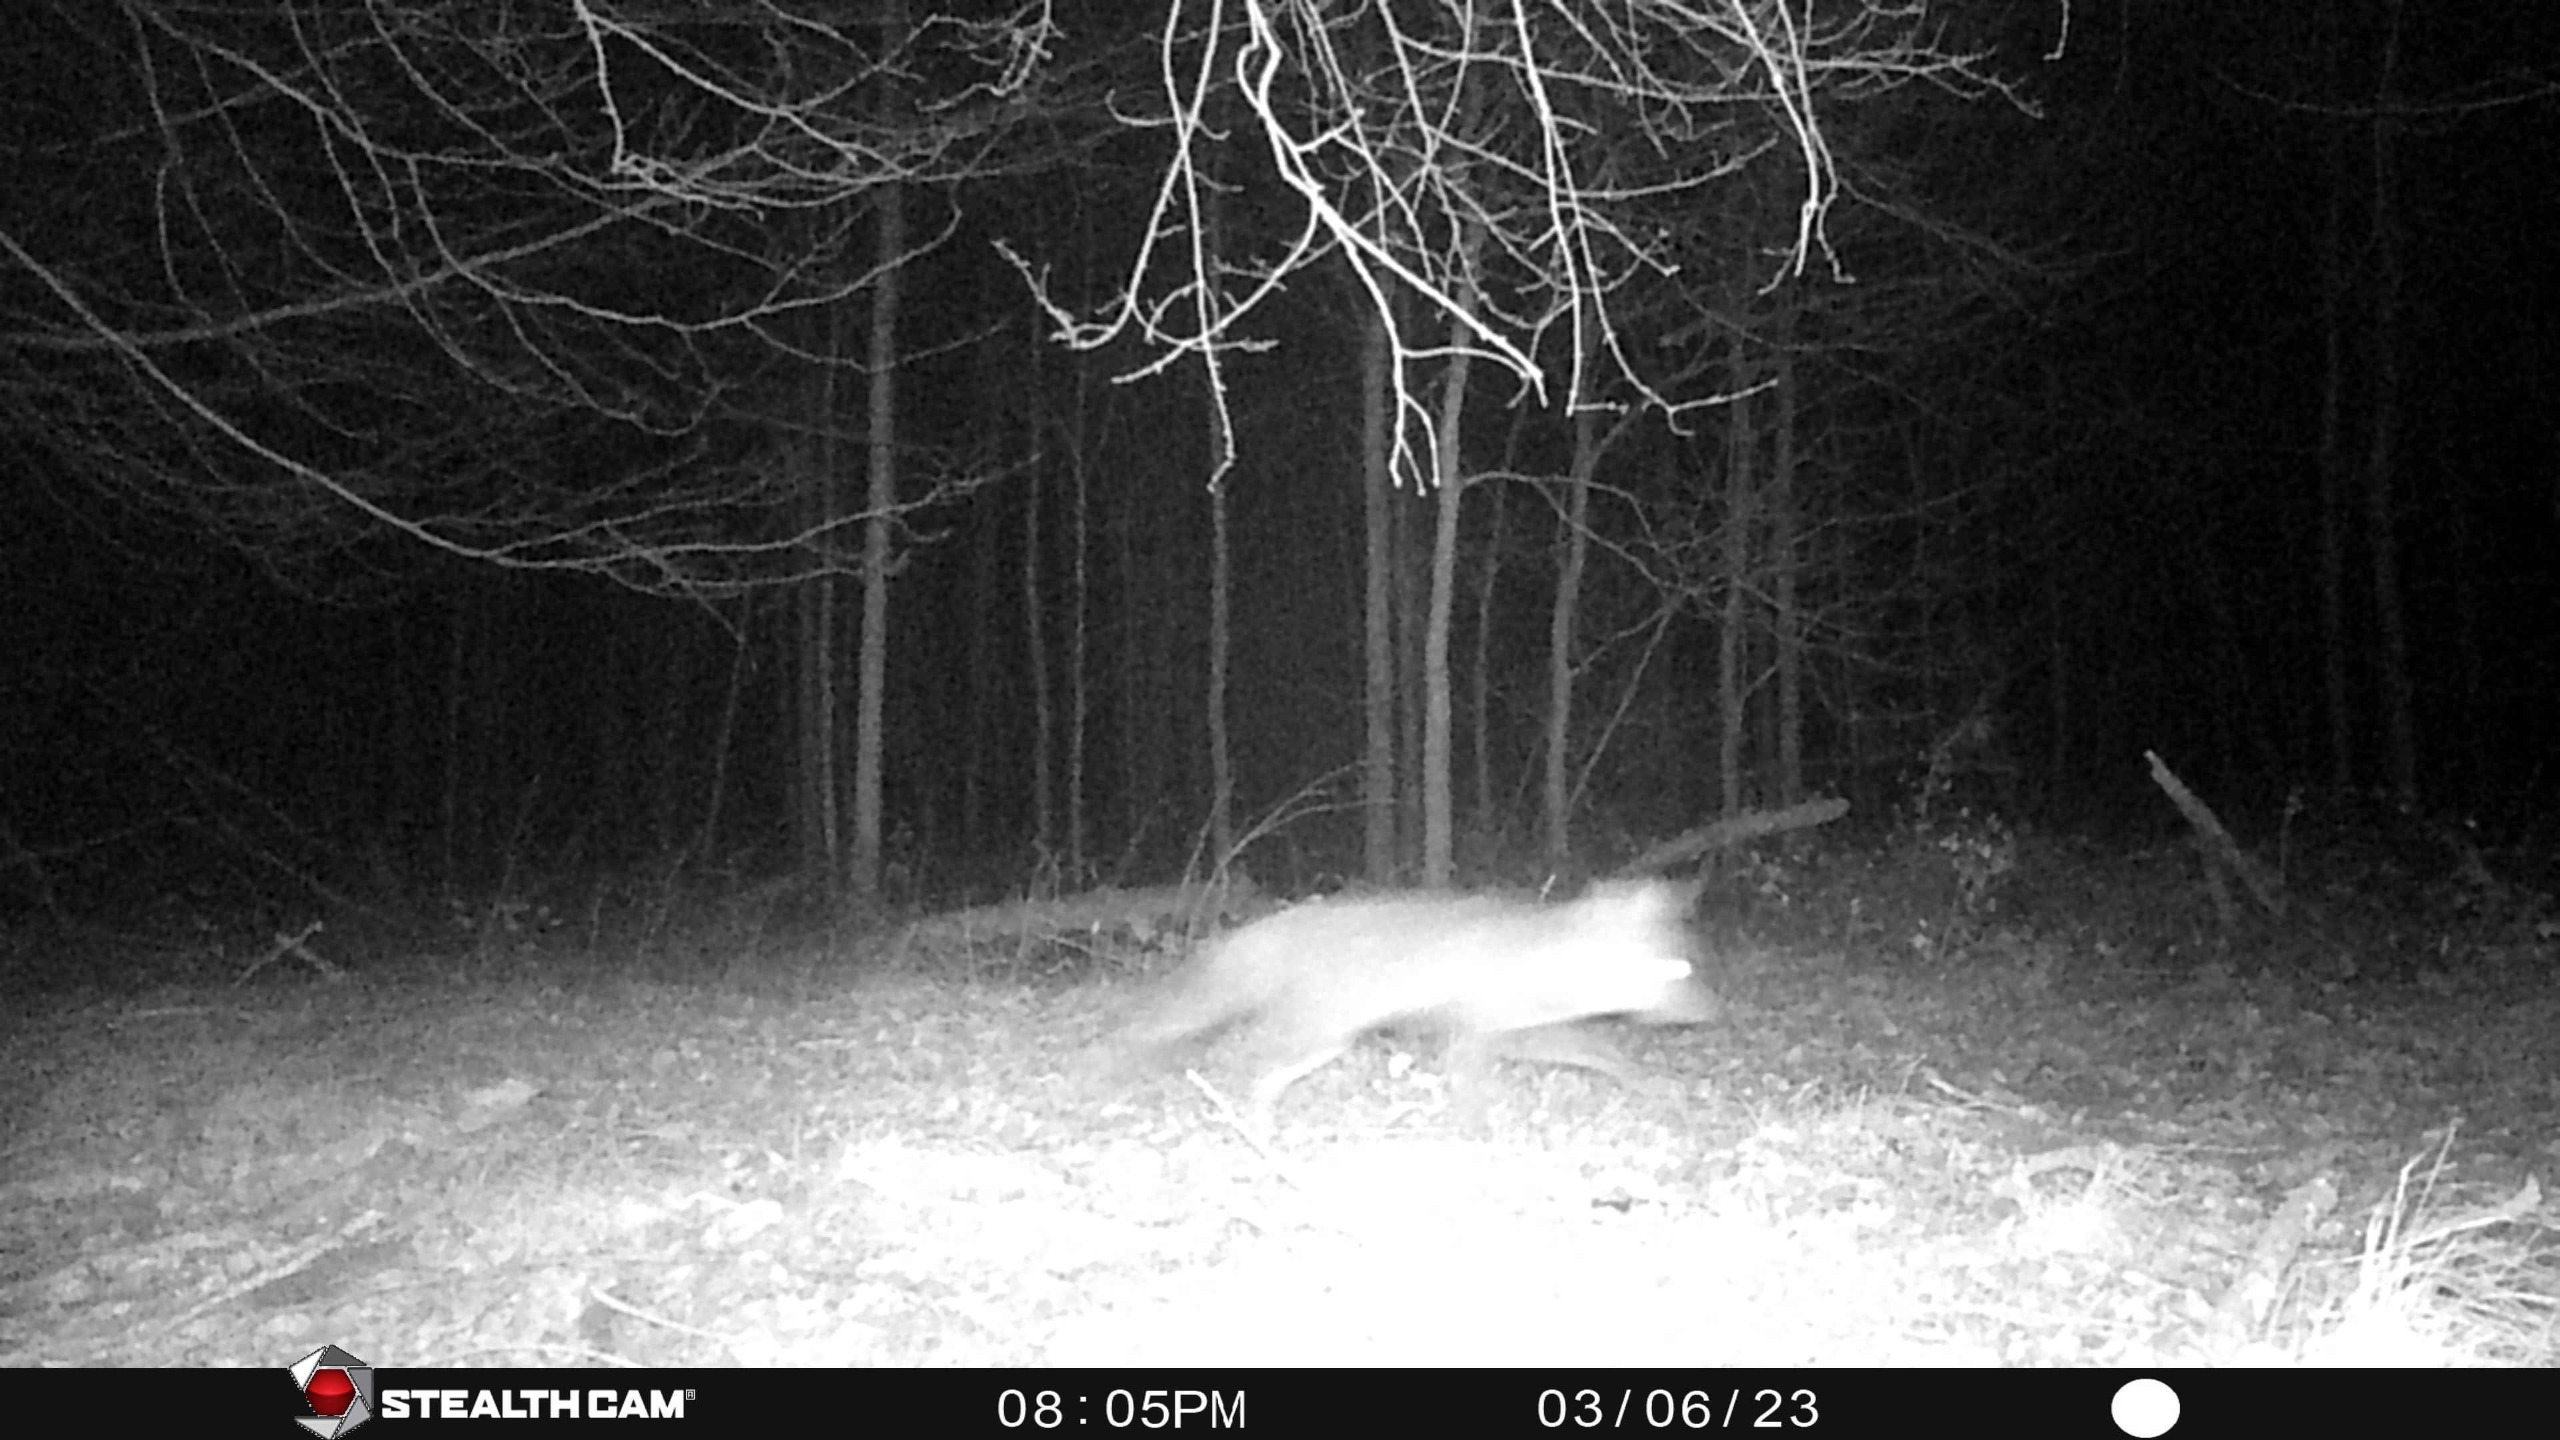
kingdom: Animalia
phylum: Chordata
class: Mammalia
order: Carnivora
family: Canidae
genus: Vulpes
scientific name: Vulpes vulpes
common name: Ræv
